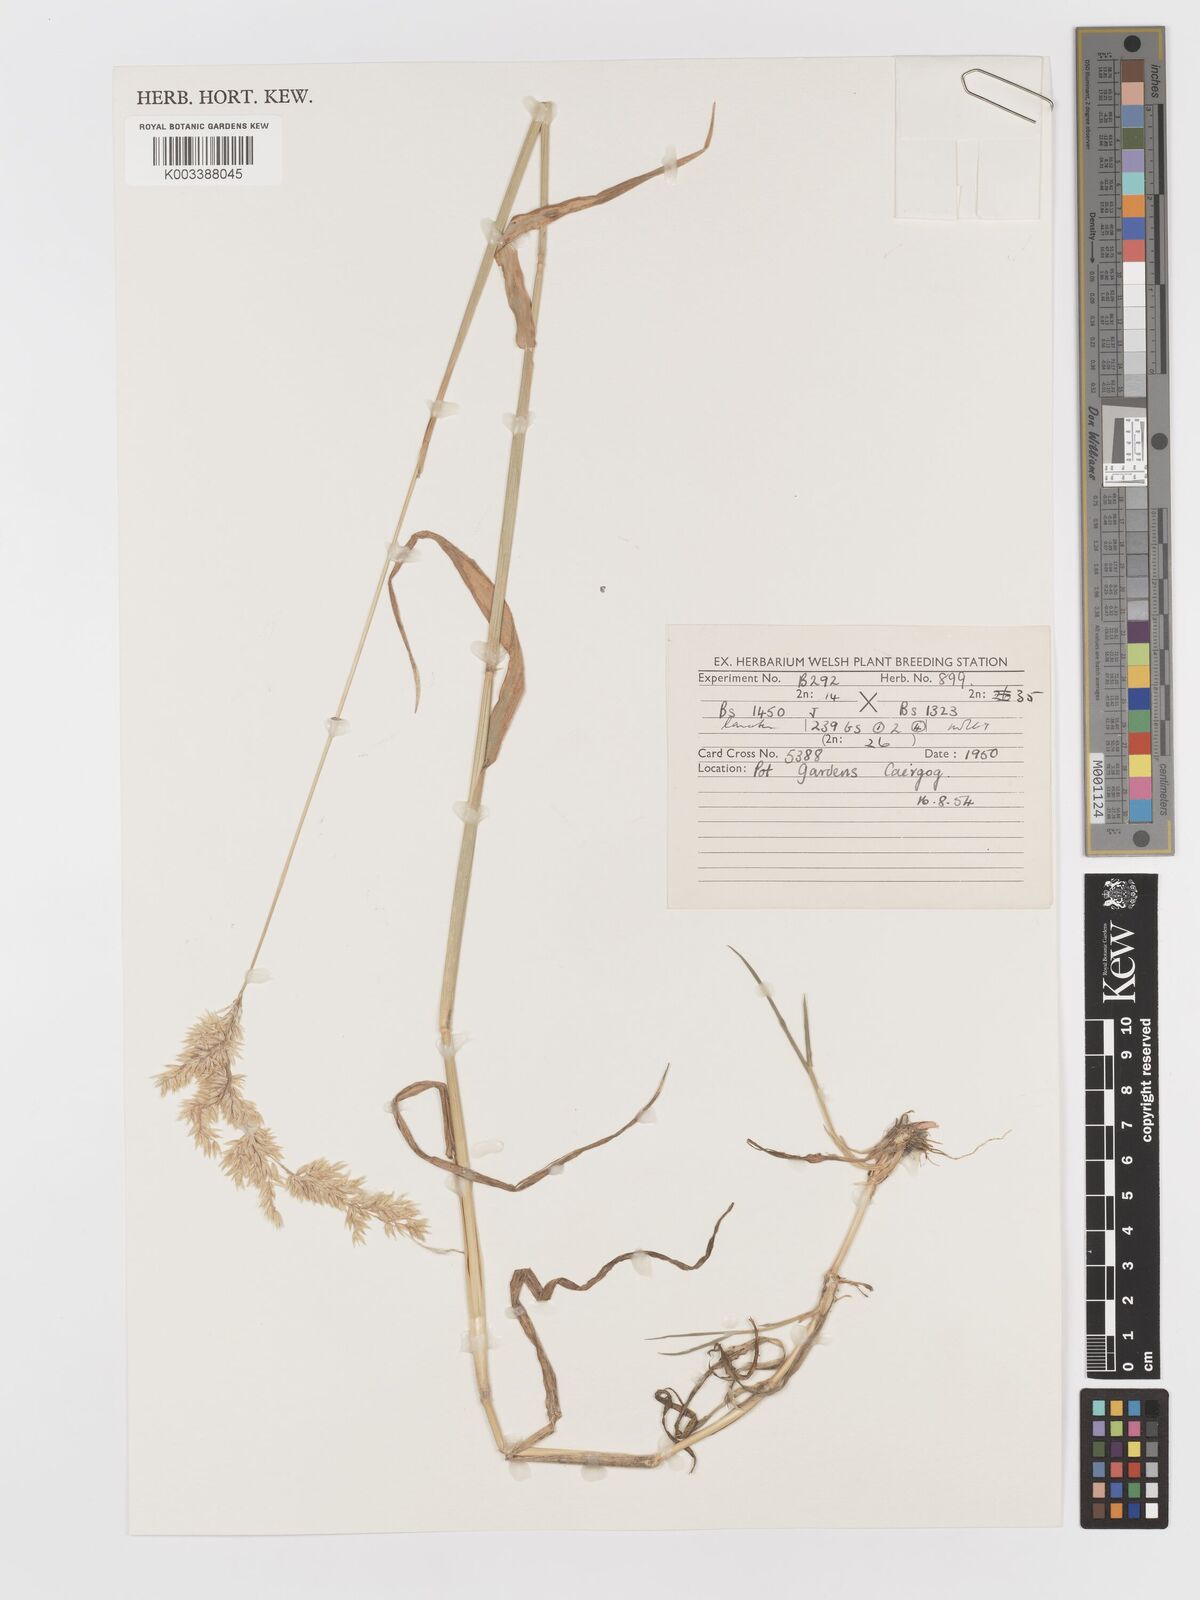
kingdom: Plantae
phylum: Tracheophyta
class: Liliopsida
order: Poales
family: Poaceae
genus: Holcus
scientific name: Holcus lanatus
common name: Yorkshire-fog
